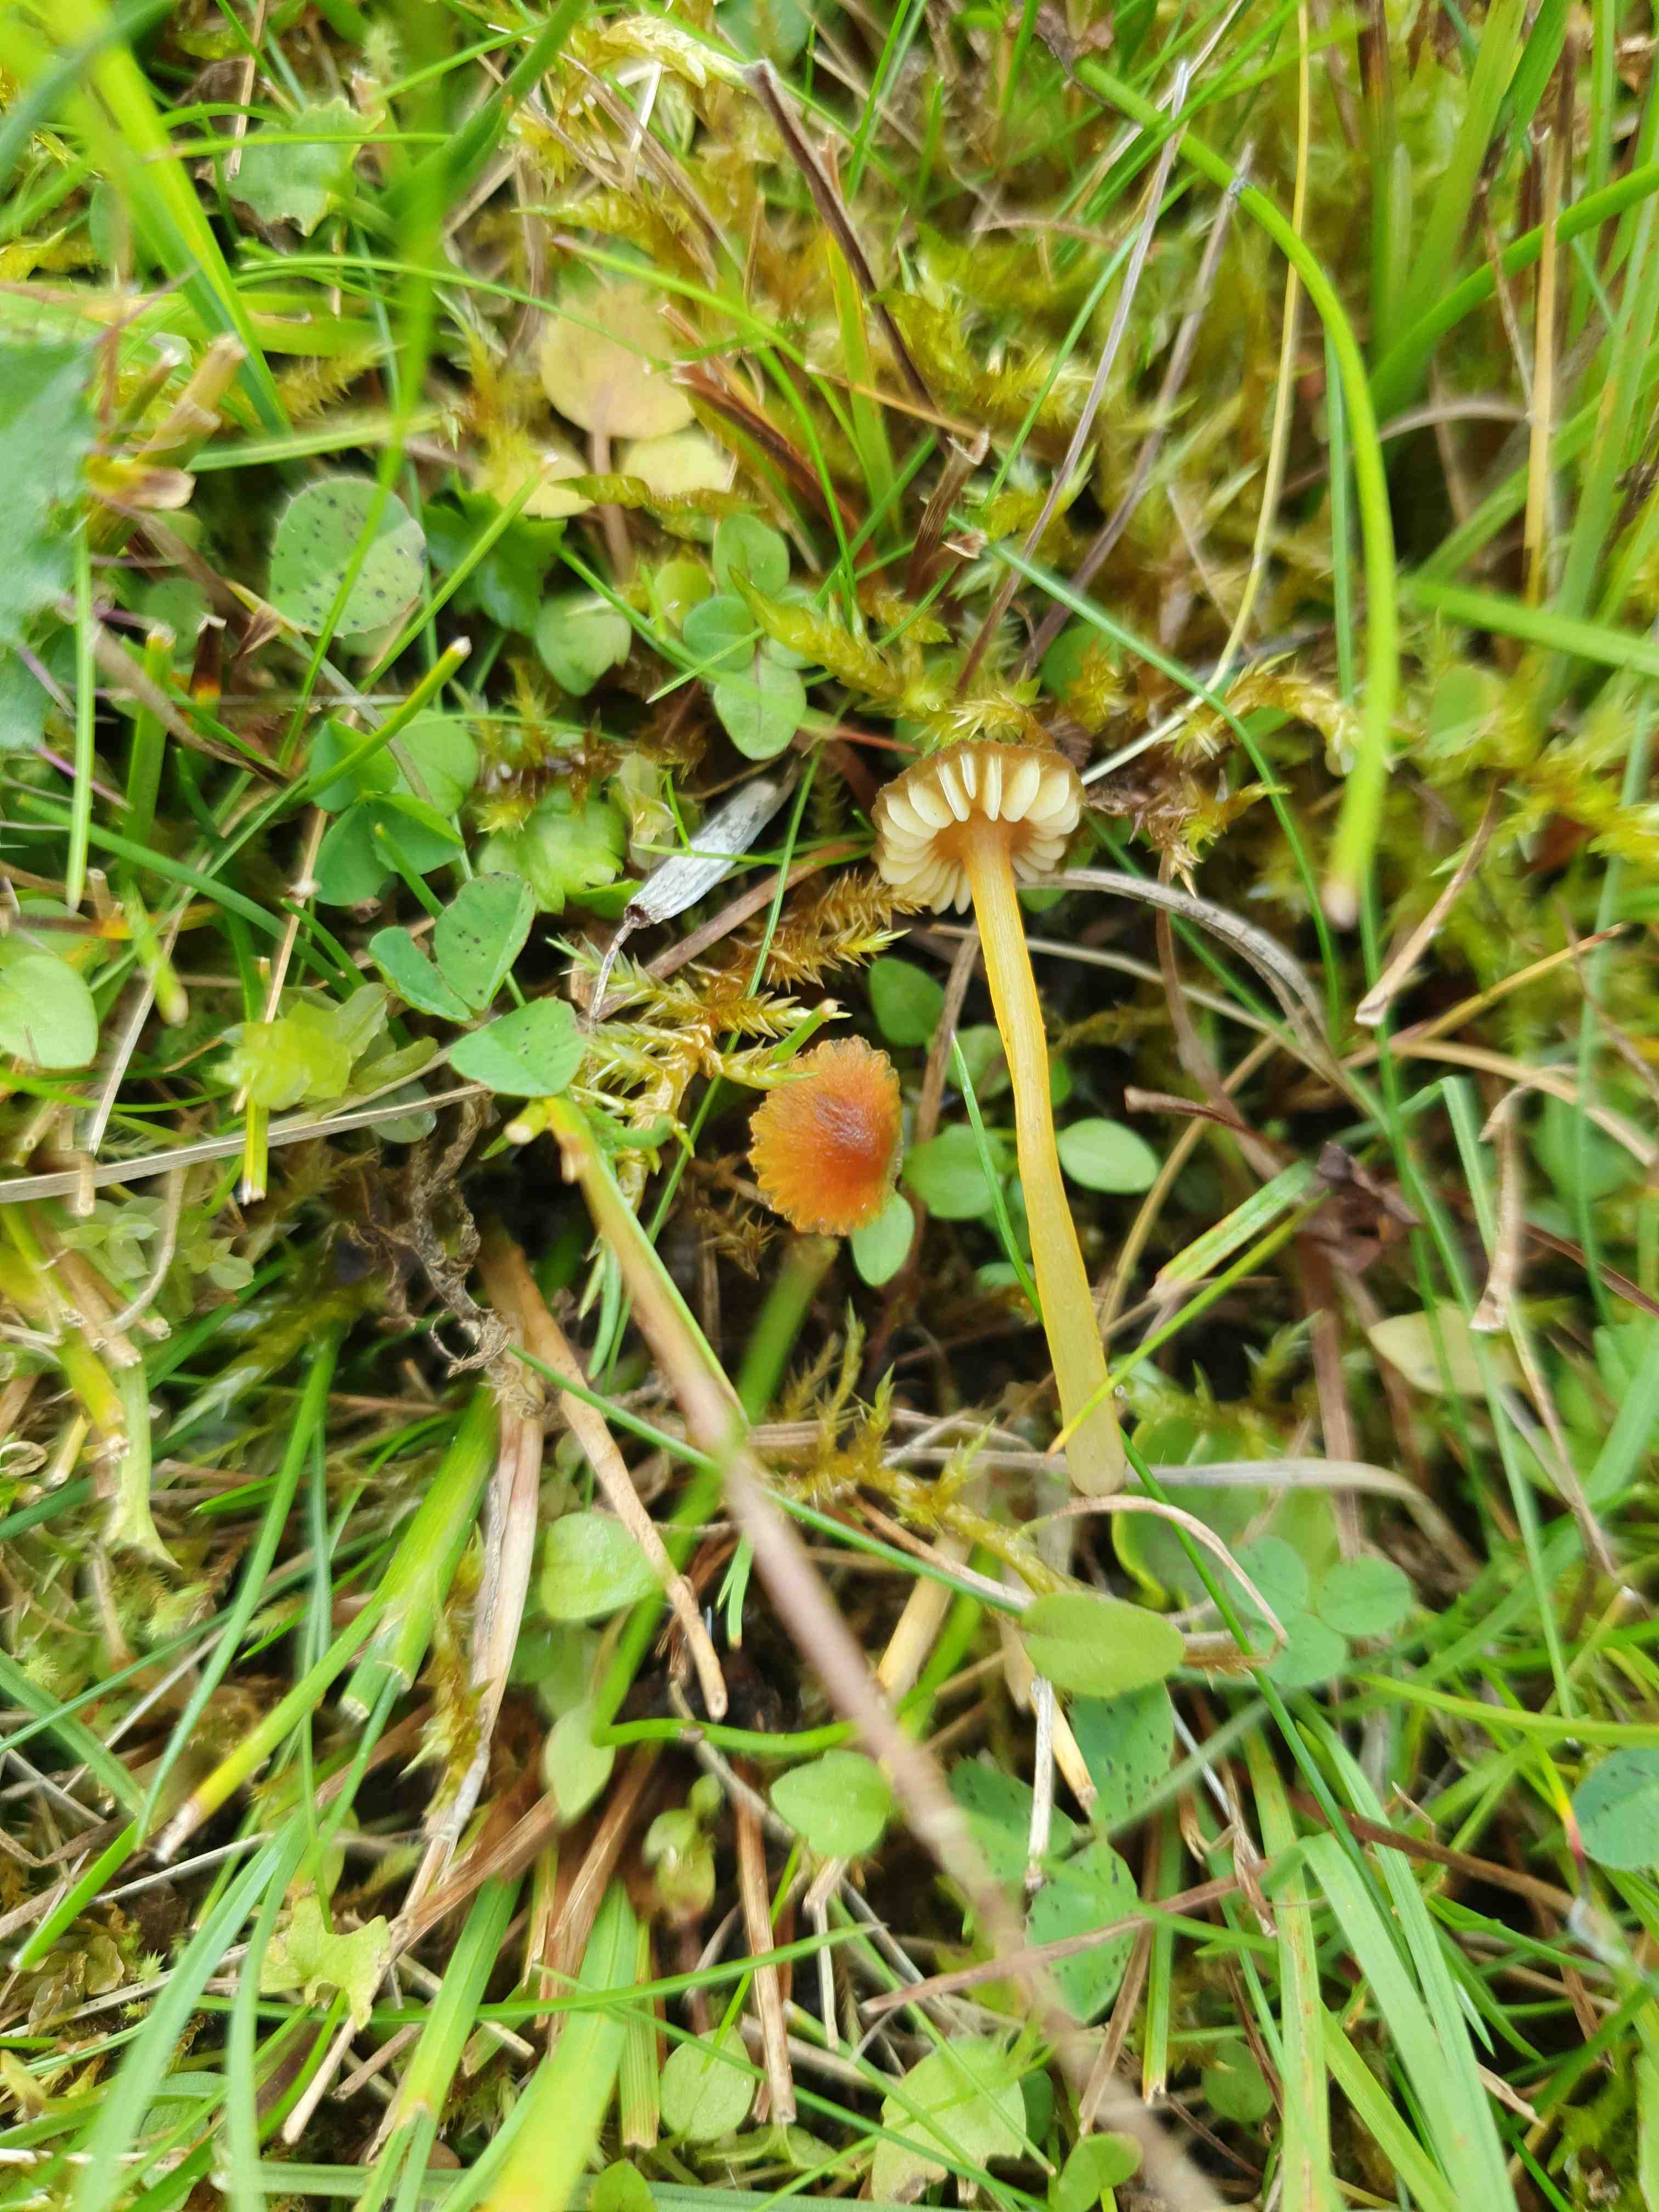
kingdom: Fungi
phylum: Basidiomycota
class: Agaricomycetes
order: Agaricales
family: Hygrophoraceae
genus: Hygrocybe
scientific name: Hygrocybe conica
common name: kegle-vokshat
